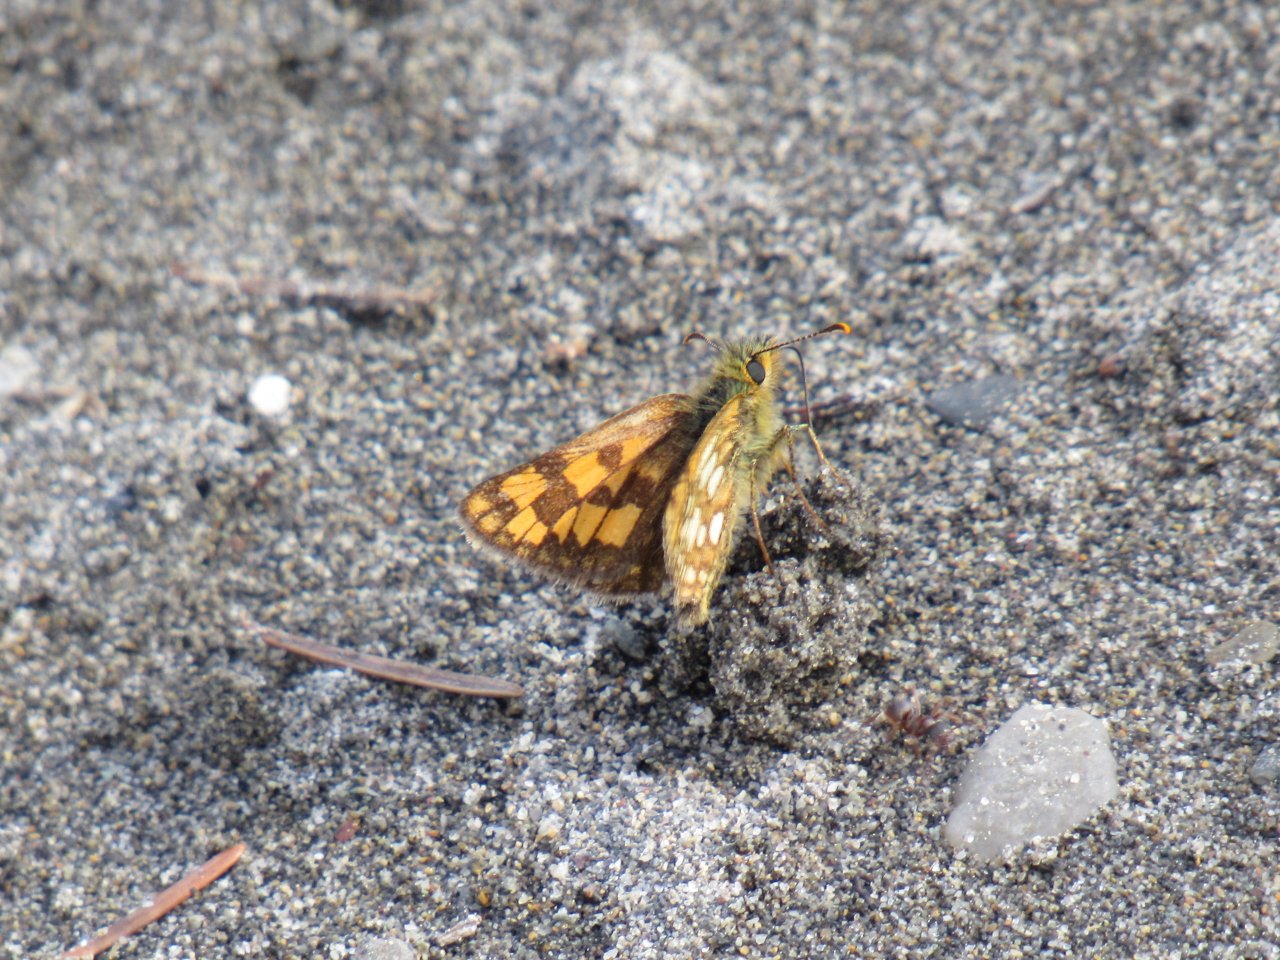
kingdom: Animalia
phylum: Arthropoda
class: Insecta
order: Lepidoptera
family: Hesperiidae
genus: Carterocephalus
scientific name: Carterocephalus palaemon
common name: Chequered Skipper
